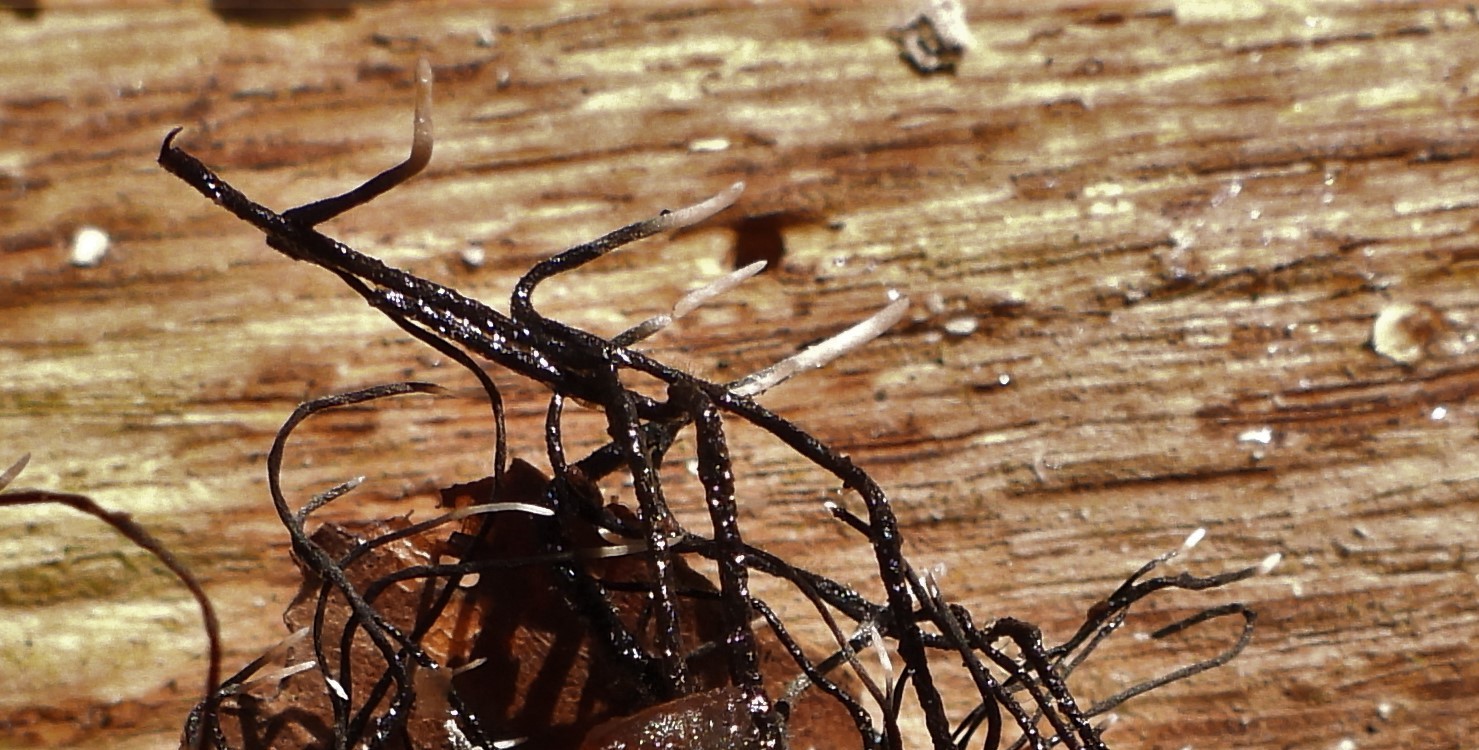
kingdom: Fungi
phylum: Ascomycota
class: Sordariomycetes
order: Xylariales
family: Xylariaceae
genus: Xylaria
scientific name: Xylaria carpophila
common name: bogskål-stødsvamp
